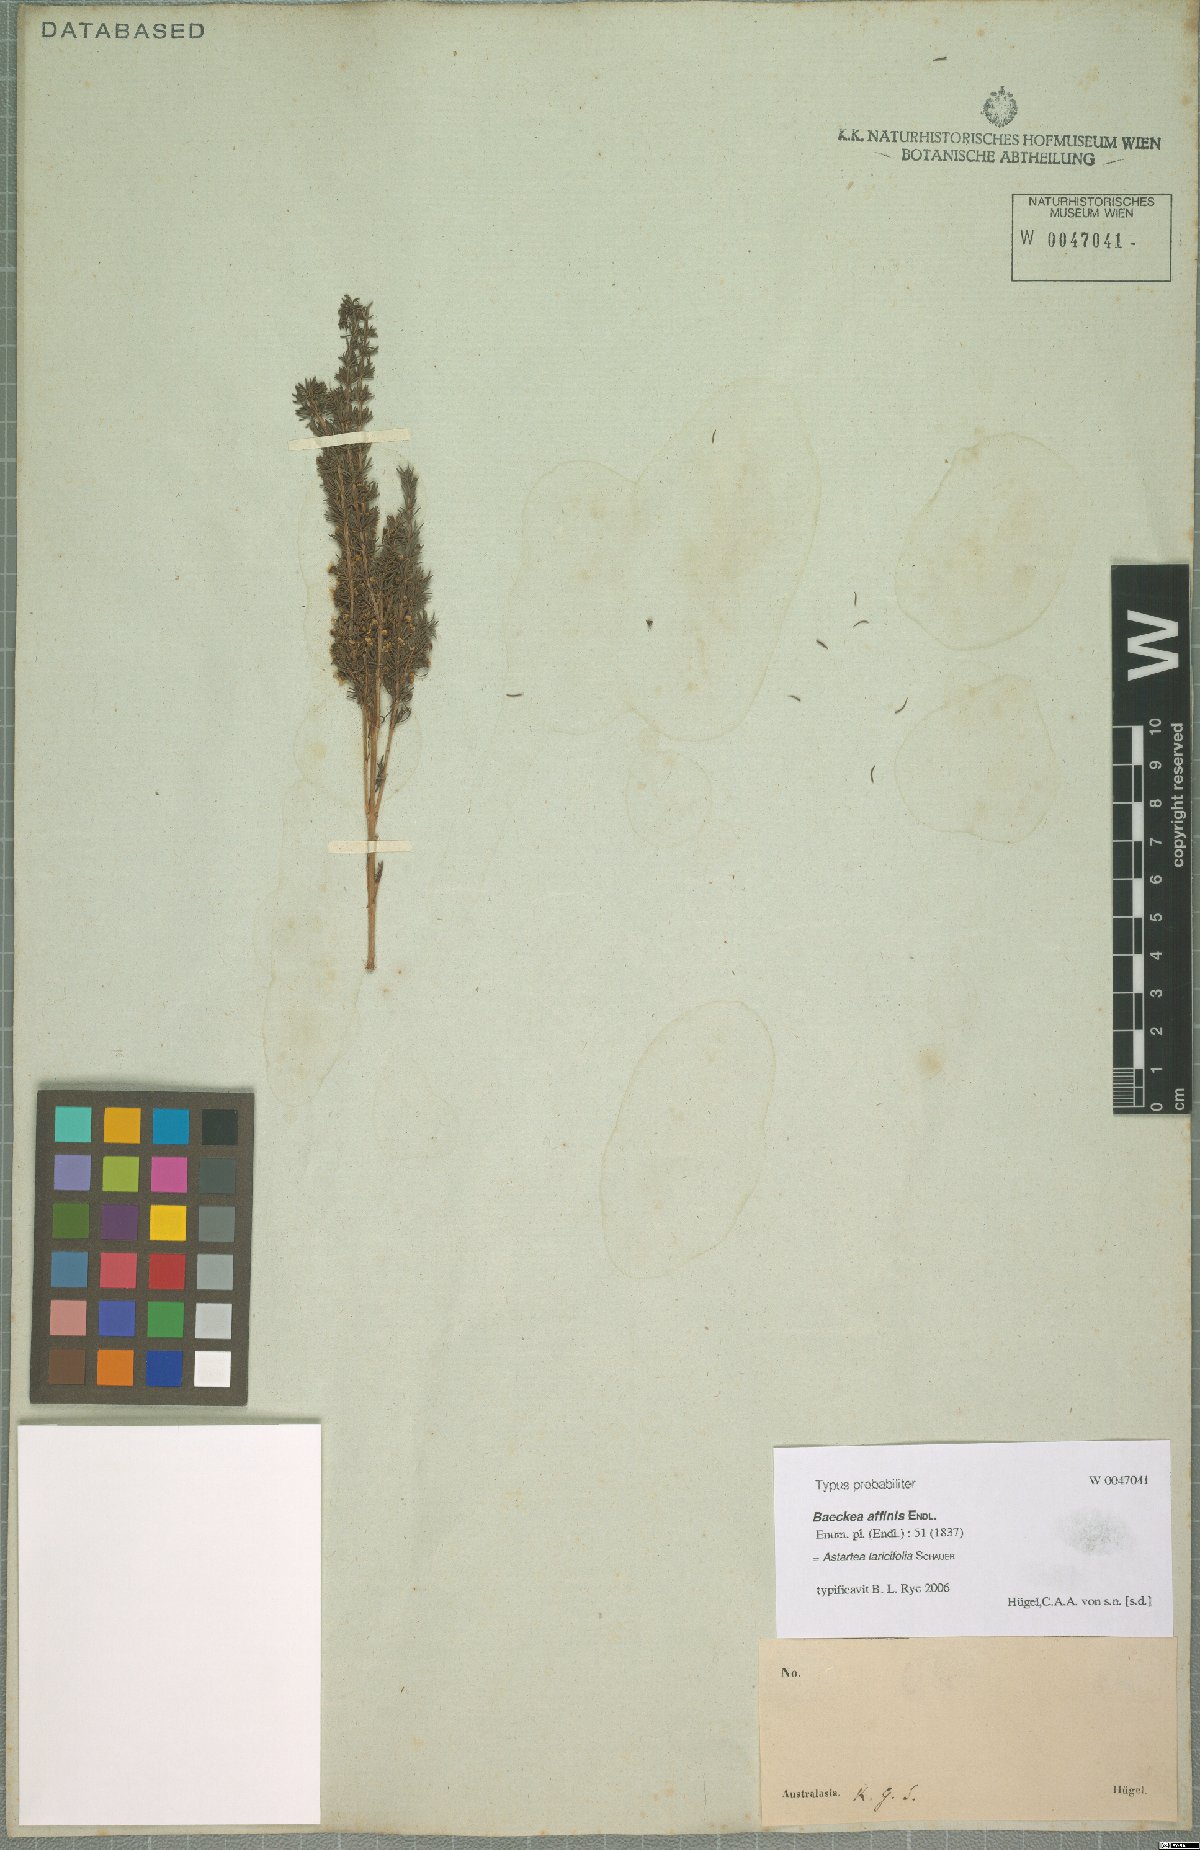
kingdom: Plantae
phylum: Tracheophyta
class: Magnoliopsida
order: Myrtales
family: Myrtaceae
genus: Astartea
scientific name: Astartea pulchella
